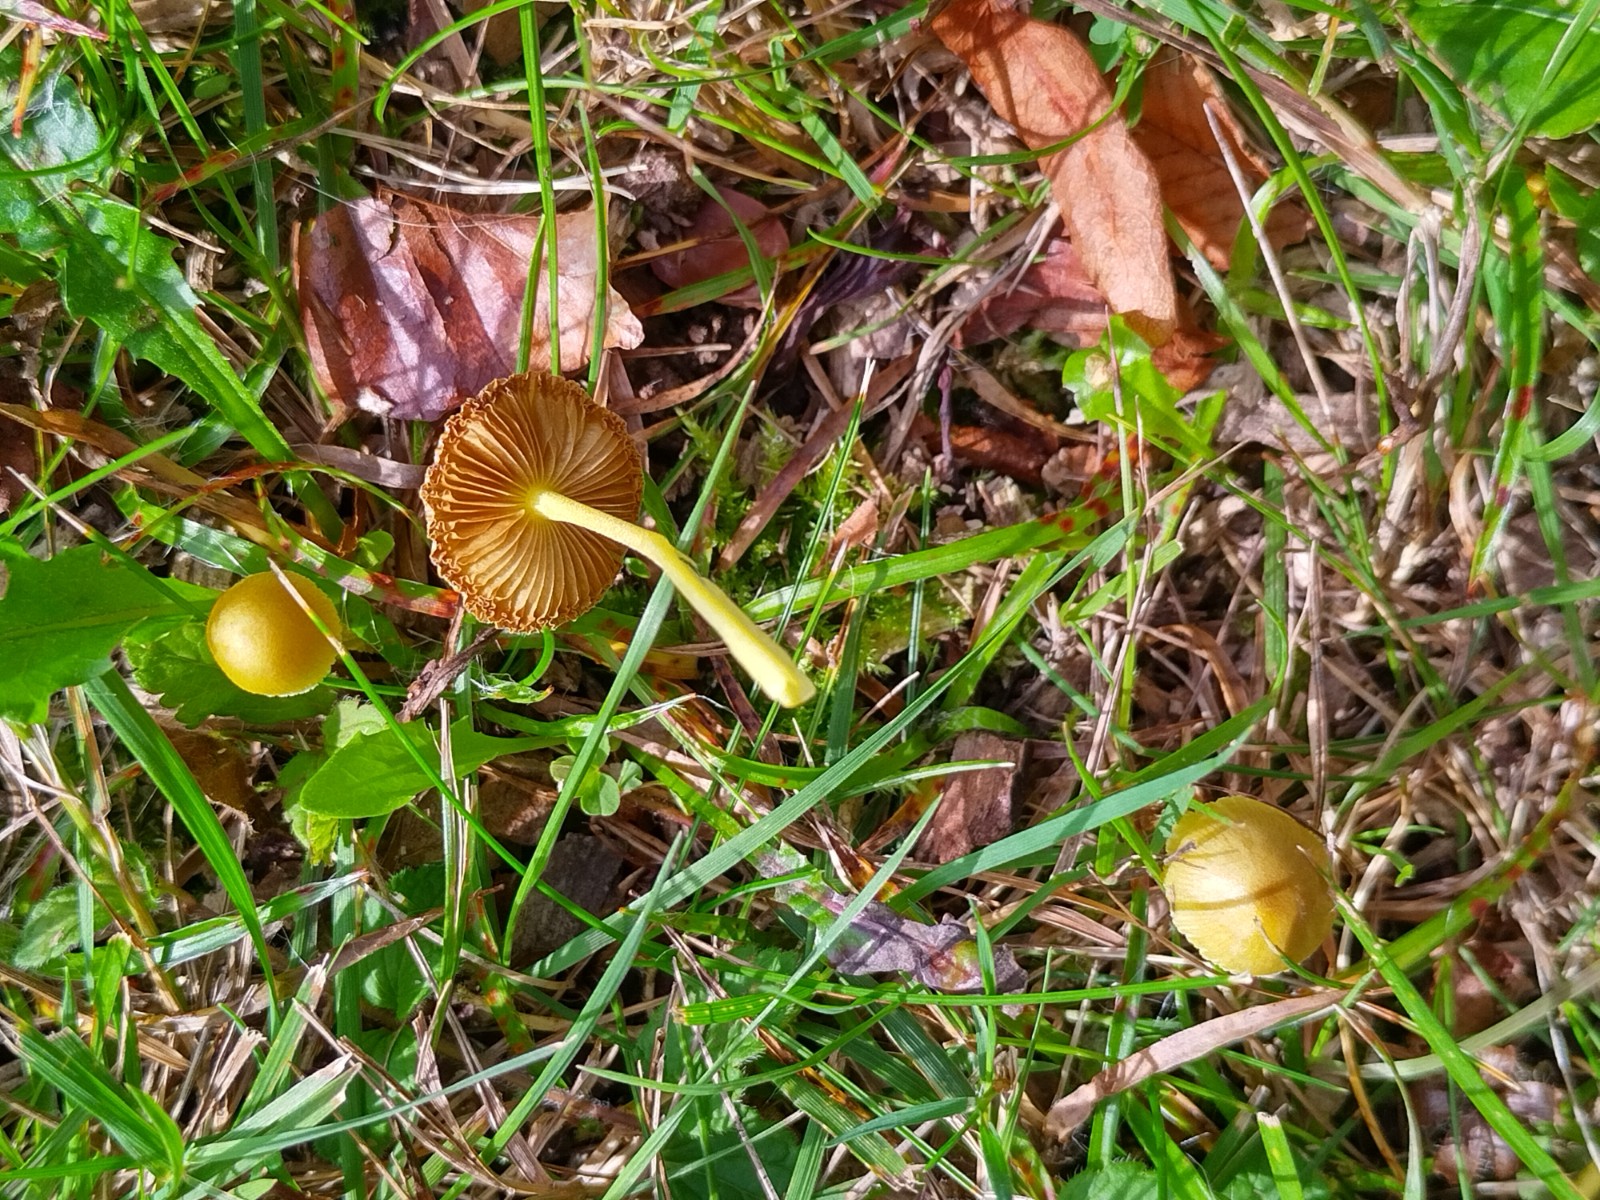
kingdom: Fungi
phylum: Basidiomycota
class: Agaricomycetes
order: Agaricales
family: Bolbitiaceae
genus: Bolbitius
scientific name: Bolbitius titubans
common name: almindelig gulhat
